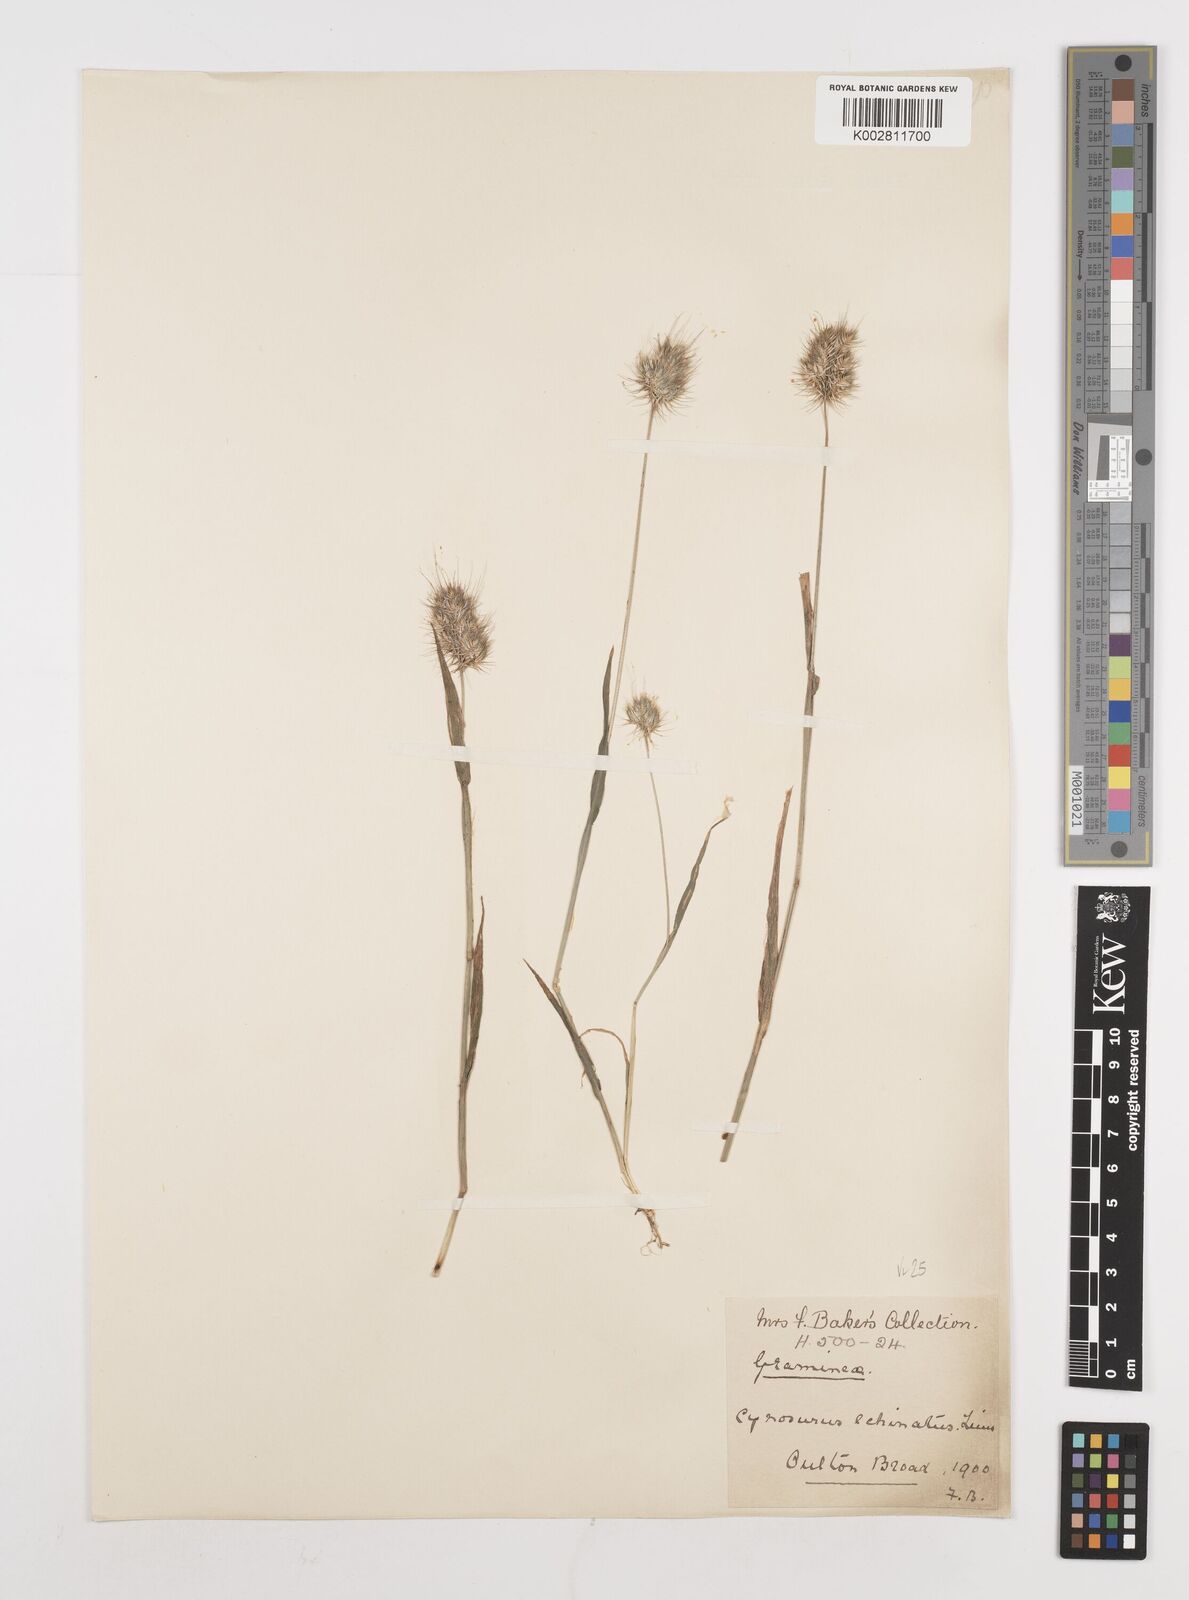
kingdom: Plantae
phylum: Tracheophyta
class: Liliopsida
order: Poales
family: Poaceae
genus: Cynosurus
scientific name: Cynosurus echinatus
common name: Rough dog's-tail
